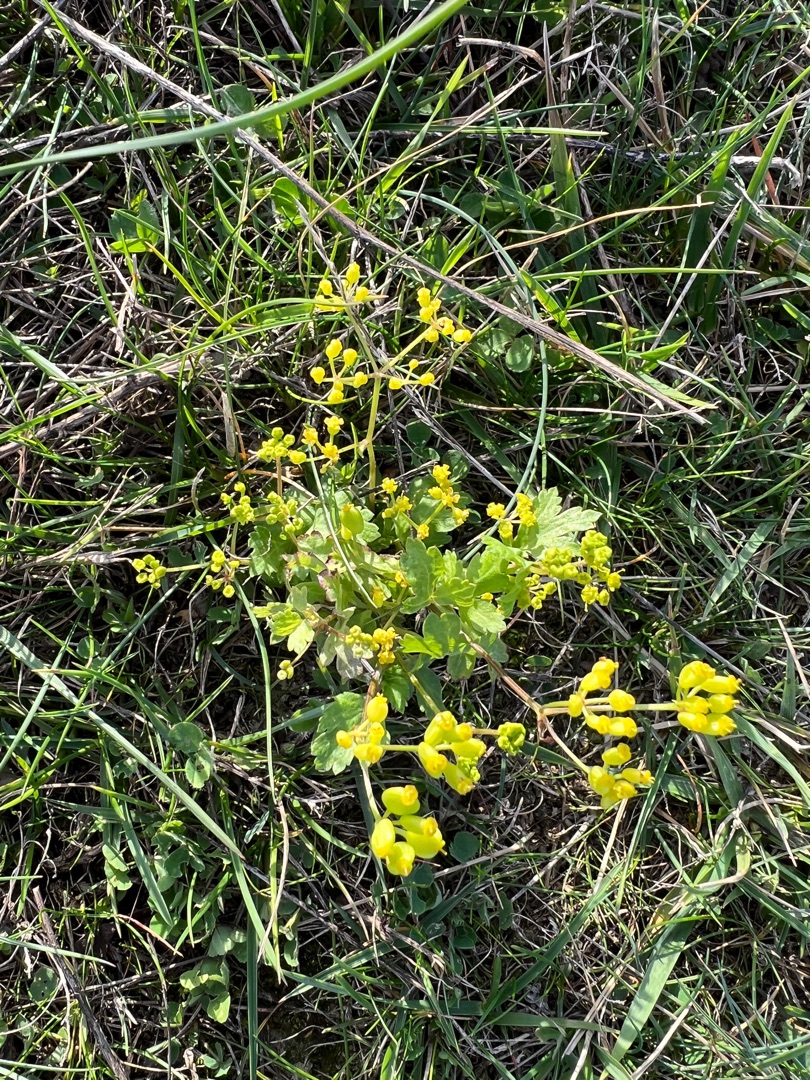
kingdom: Plantae
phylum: Tracheophyta
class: Magnoliopsida
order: Apiales
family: Apiaceae
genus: Pastinaca
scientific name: Pastinaca sativa
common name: Pastinak
